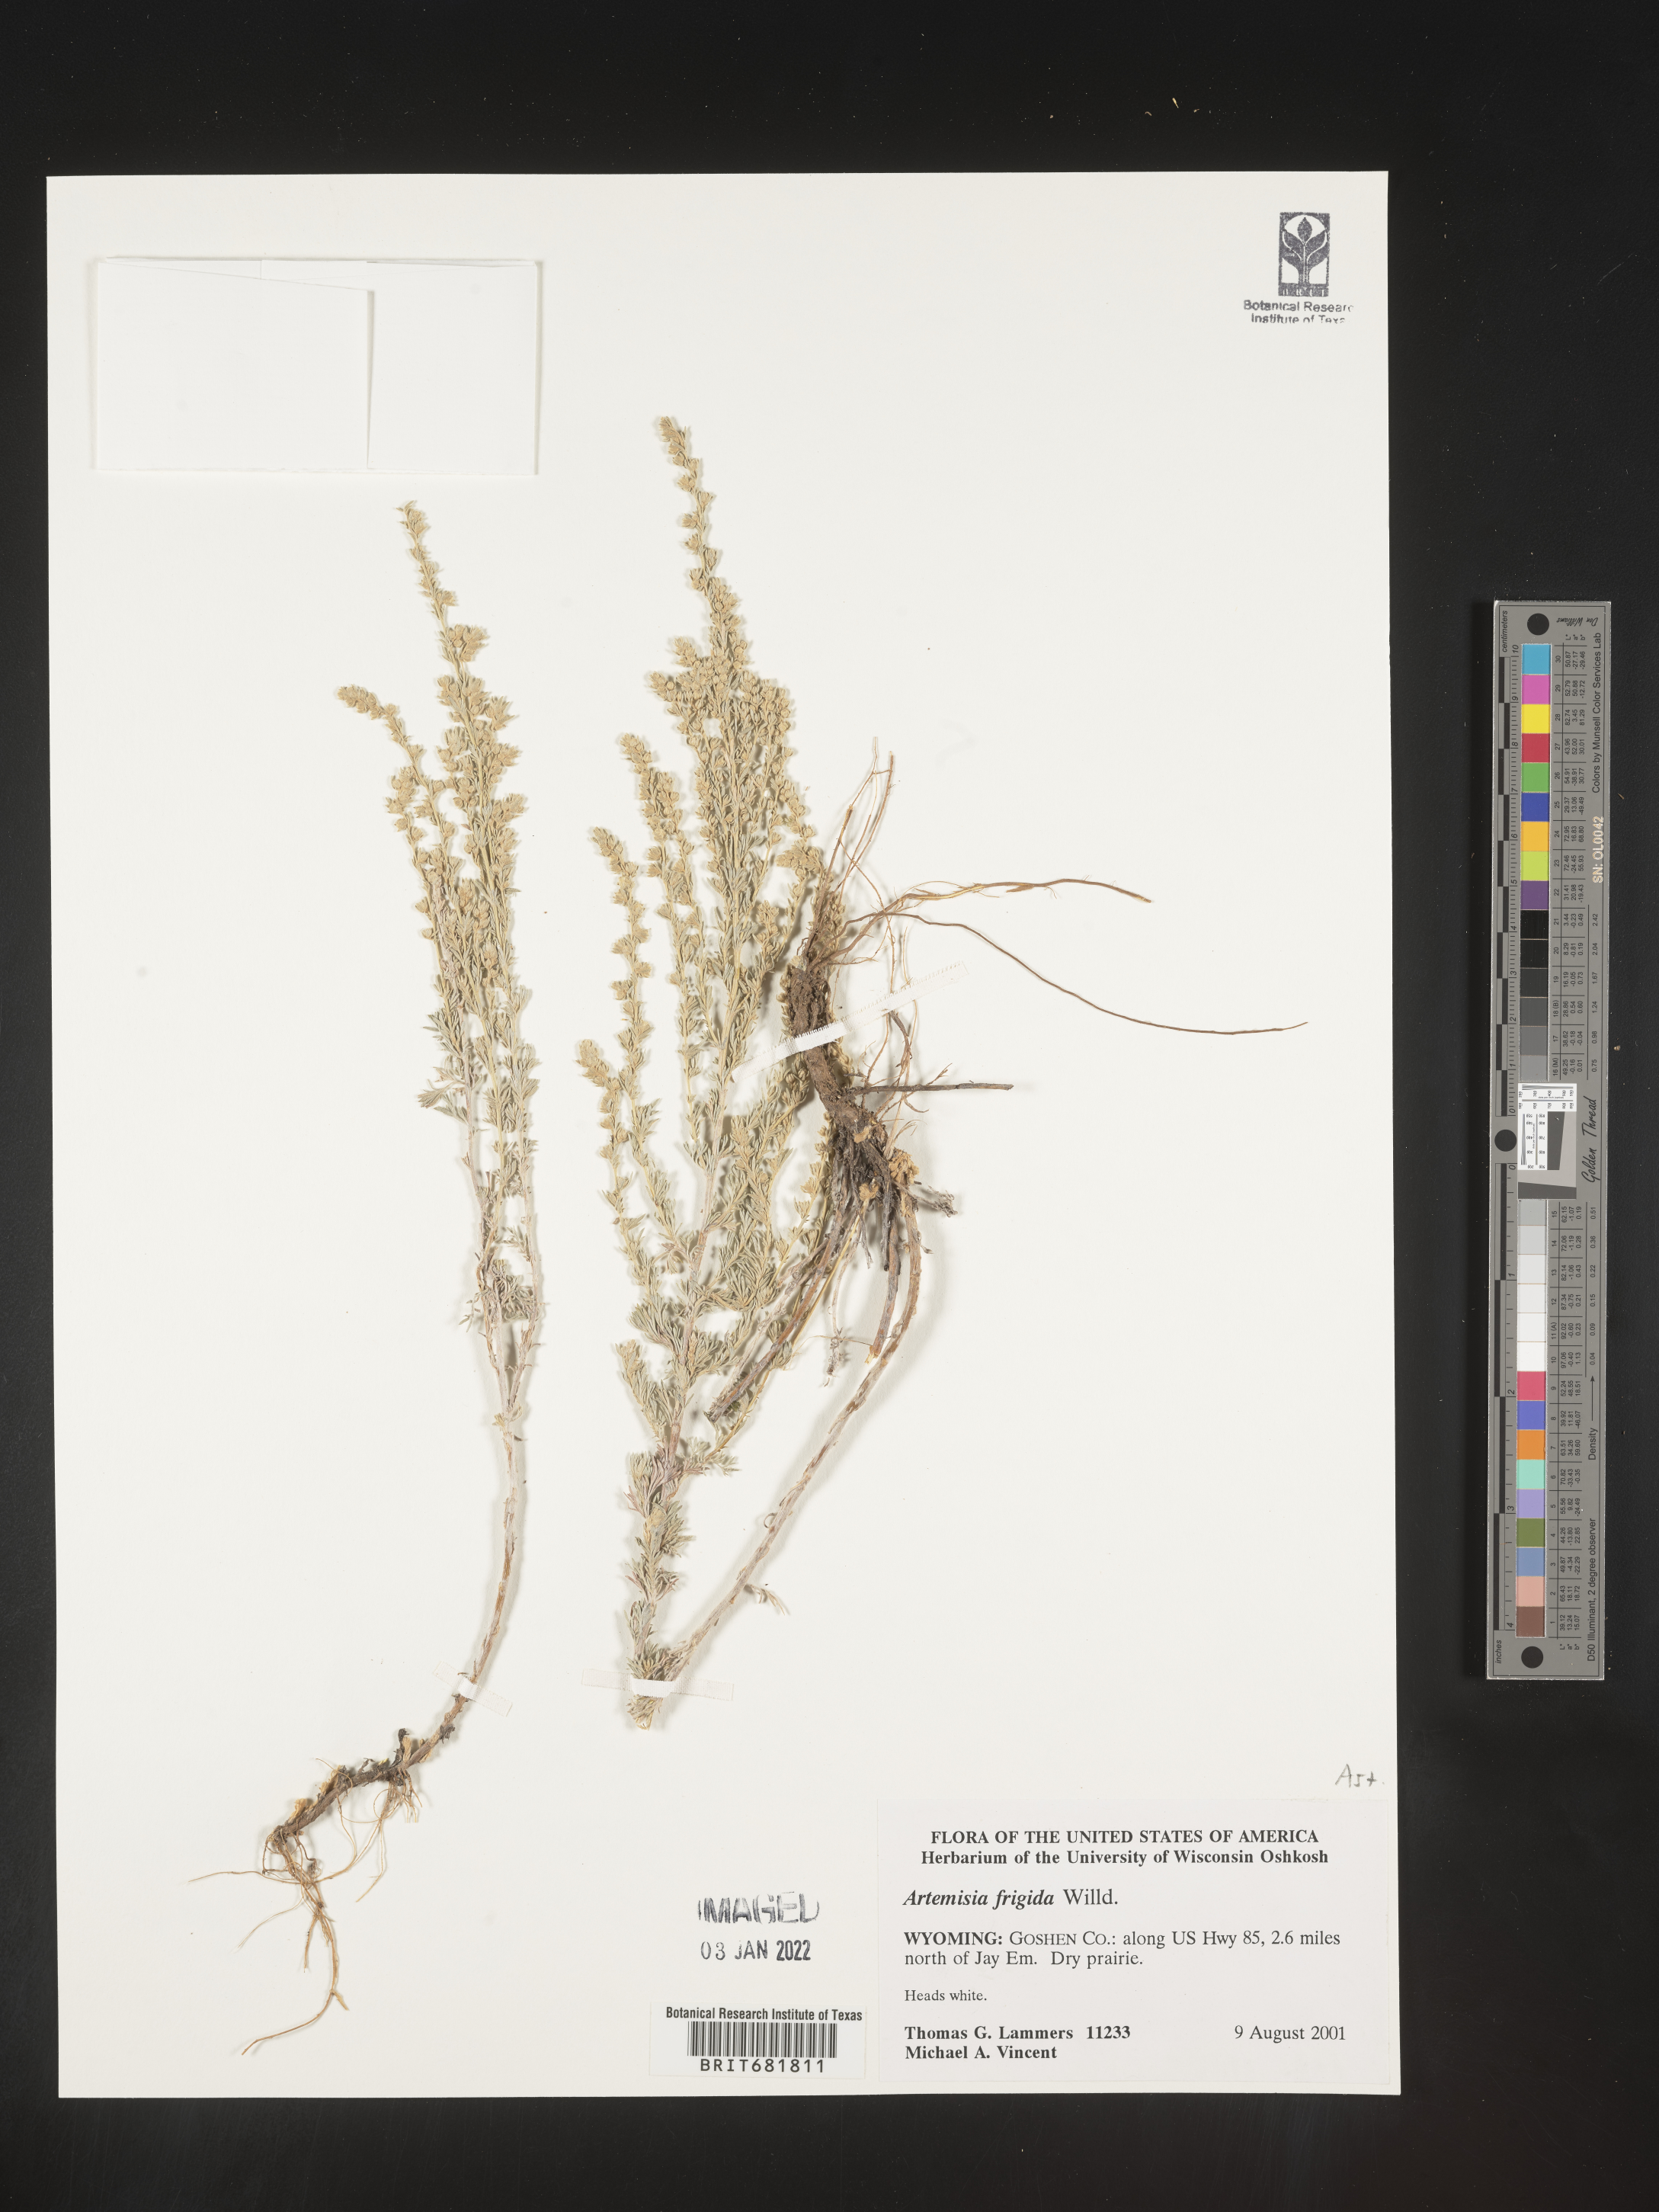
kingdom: Plantae
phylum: Tracheophyta
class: Magnoliopsida
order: Asterales
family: Asteraceae
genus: Artemisia
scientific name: Artemisia frigida
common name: Prairie sagewort
